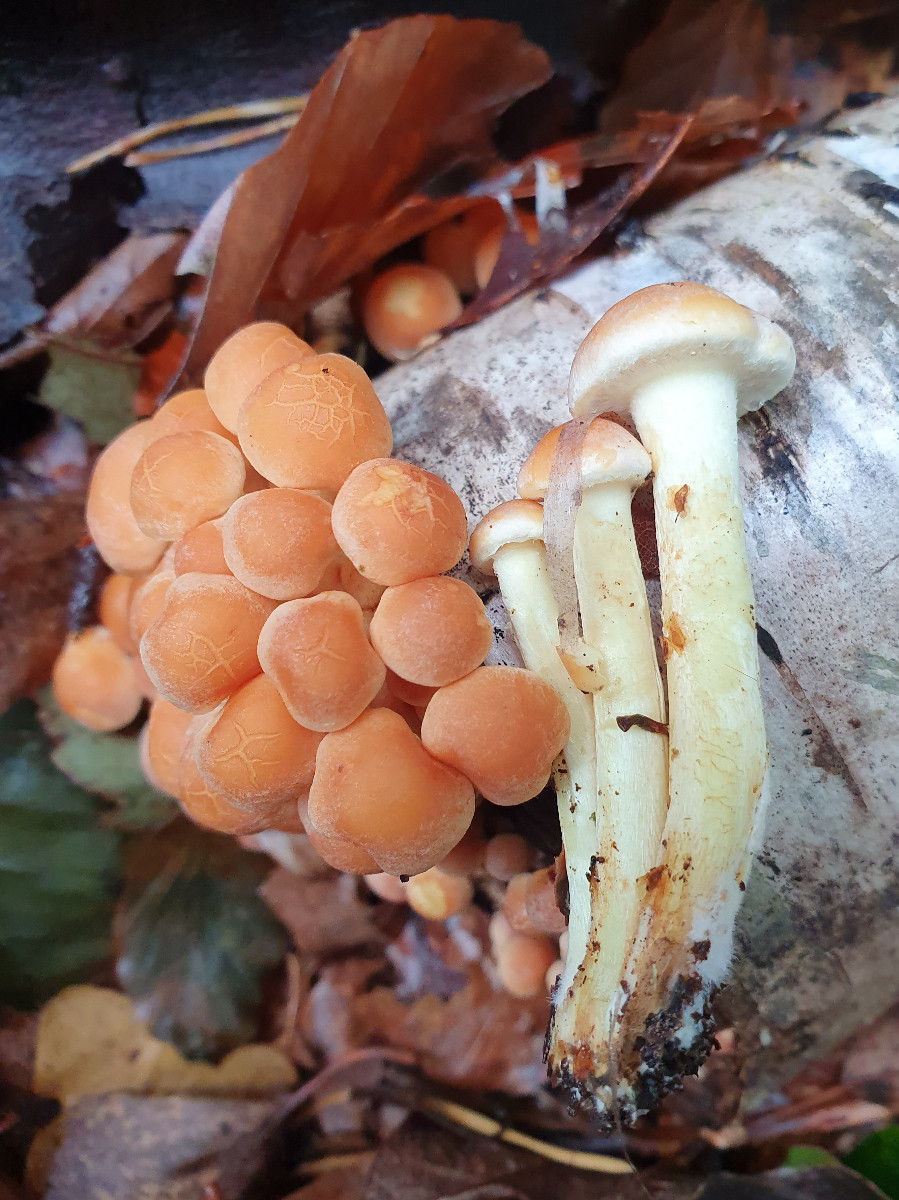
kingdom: Fungi
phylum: Basidiomycota
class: Agaricomycetes
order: Agaricales
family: Strophariaceae
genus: Hypholoma
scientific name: Hypholoma fasciculare
